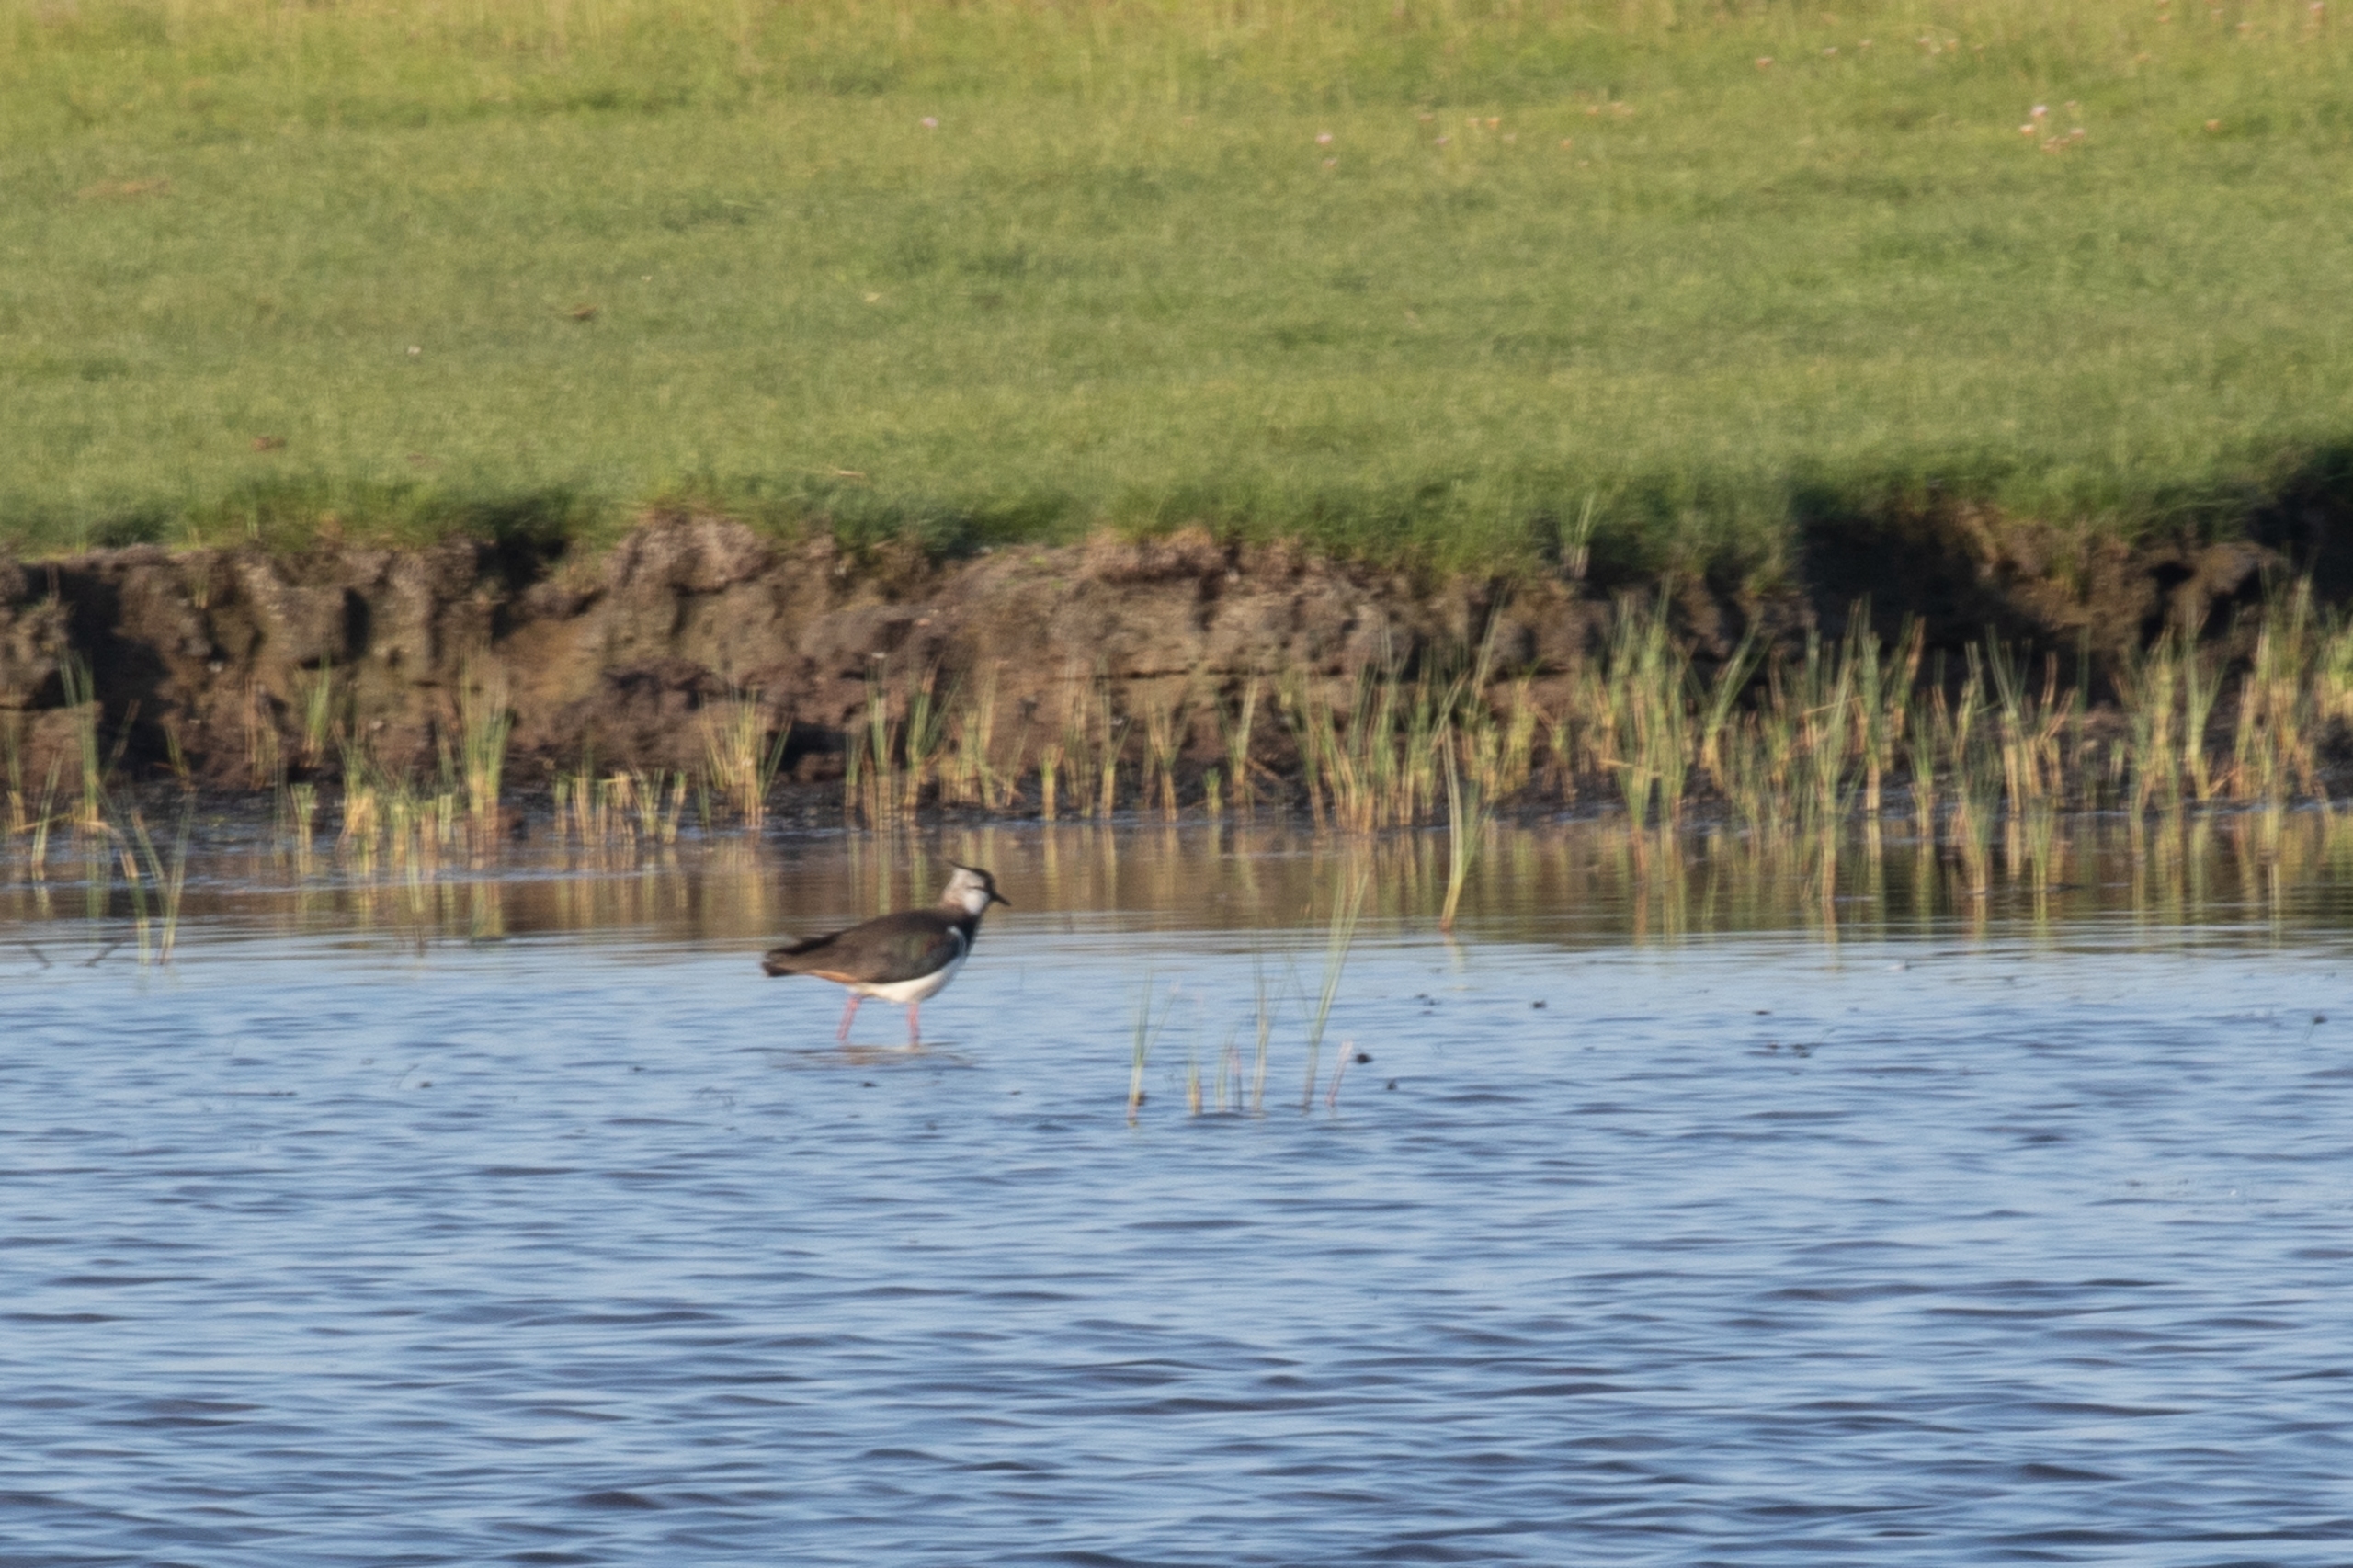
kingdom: Animalia
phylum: Chordata
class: Aves
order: Charadriiformes
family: Charadriidae
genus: Vanellus
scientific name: Vanellus vanellus
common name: Vibe
